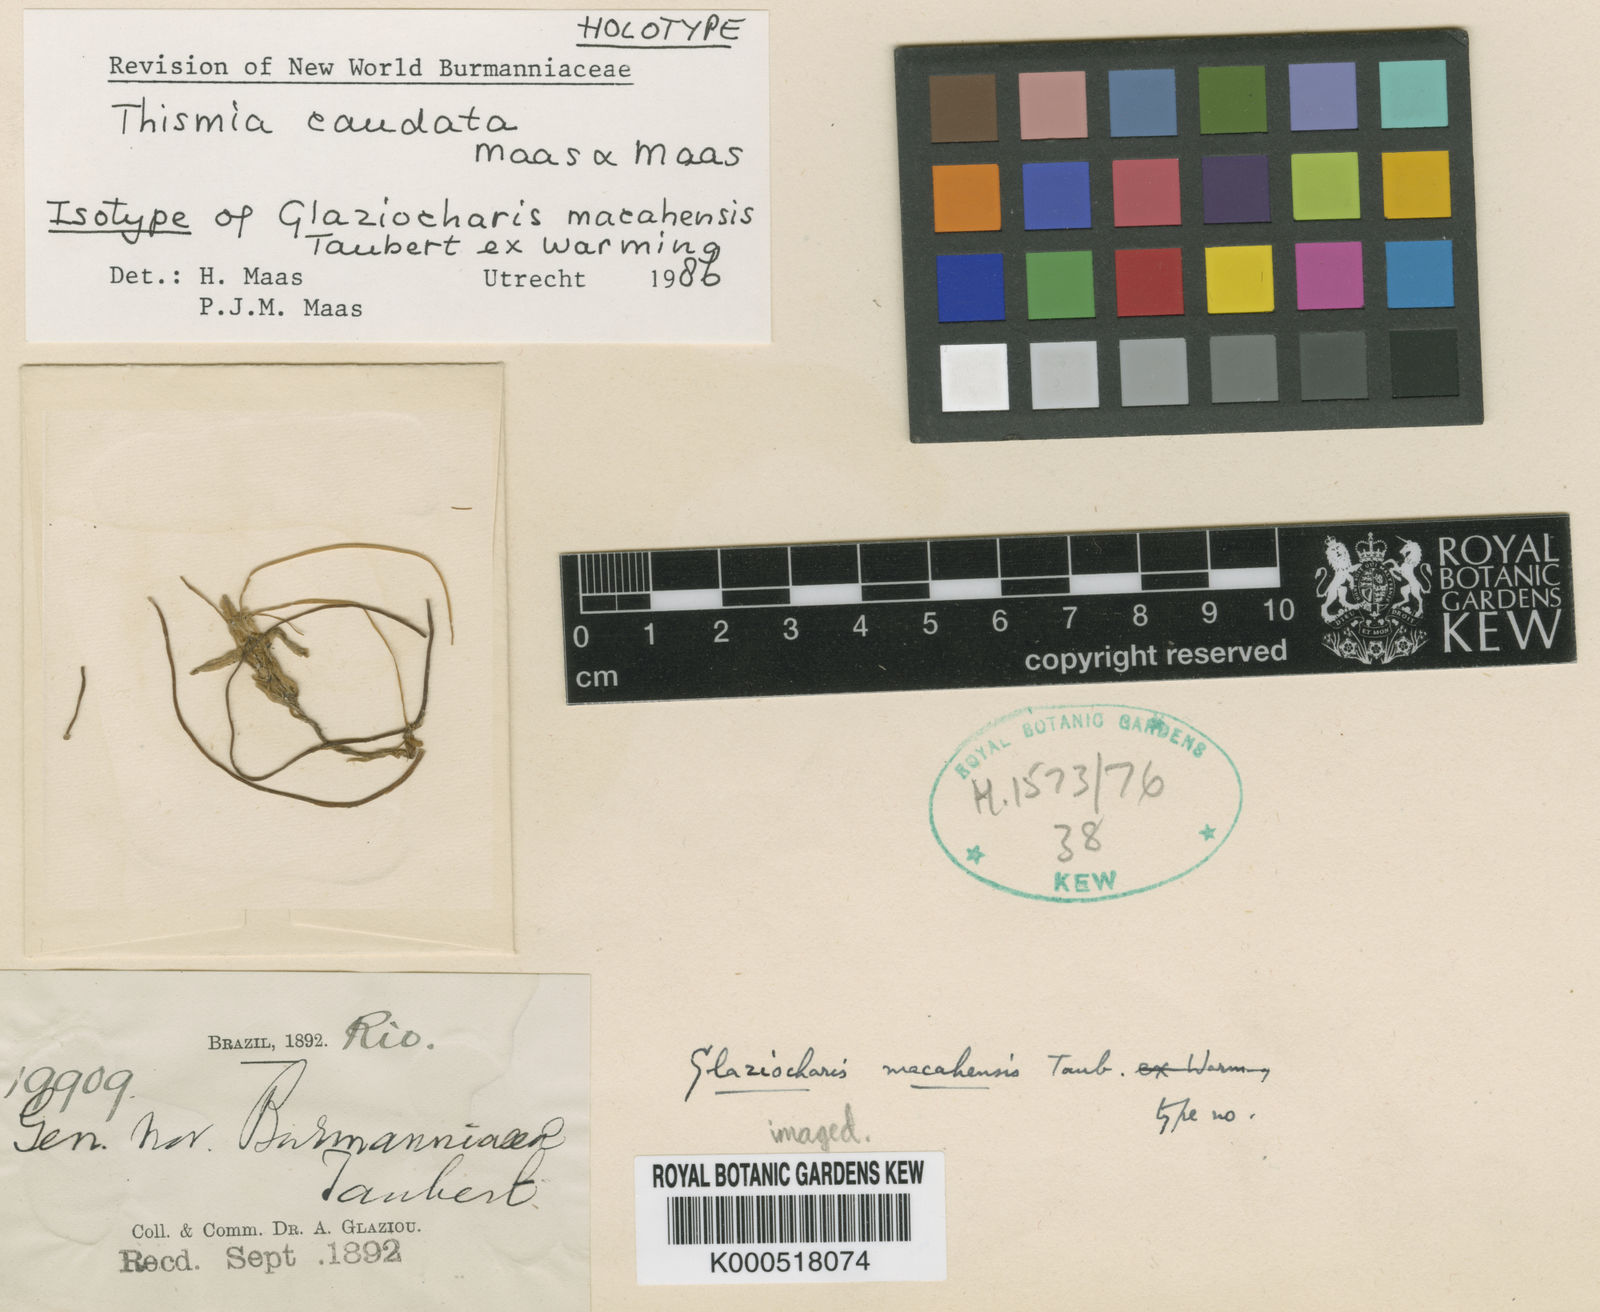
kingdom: Plantae
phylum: Tracheophyta
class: Liliopsida
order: Dioscoreales
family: Burmanniaceae
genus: Thismia
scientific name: Thismia caudata
